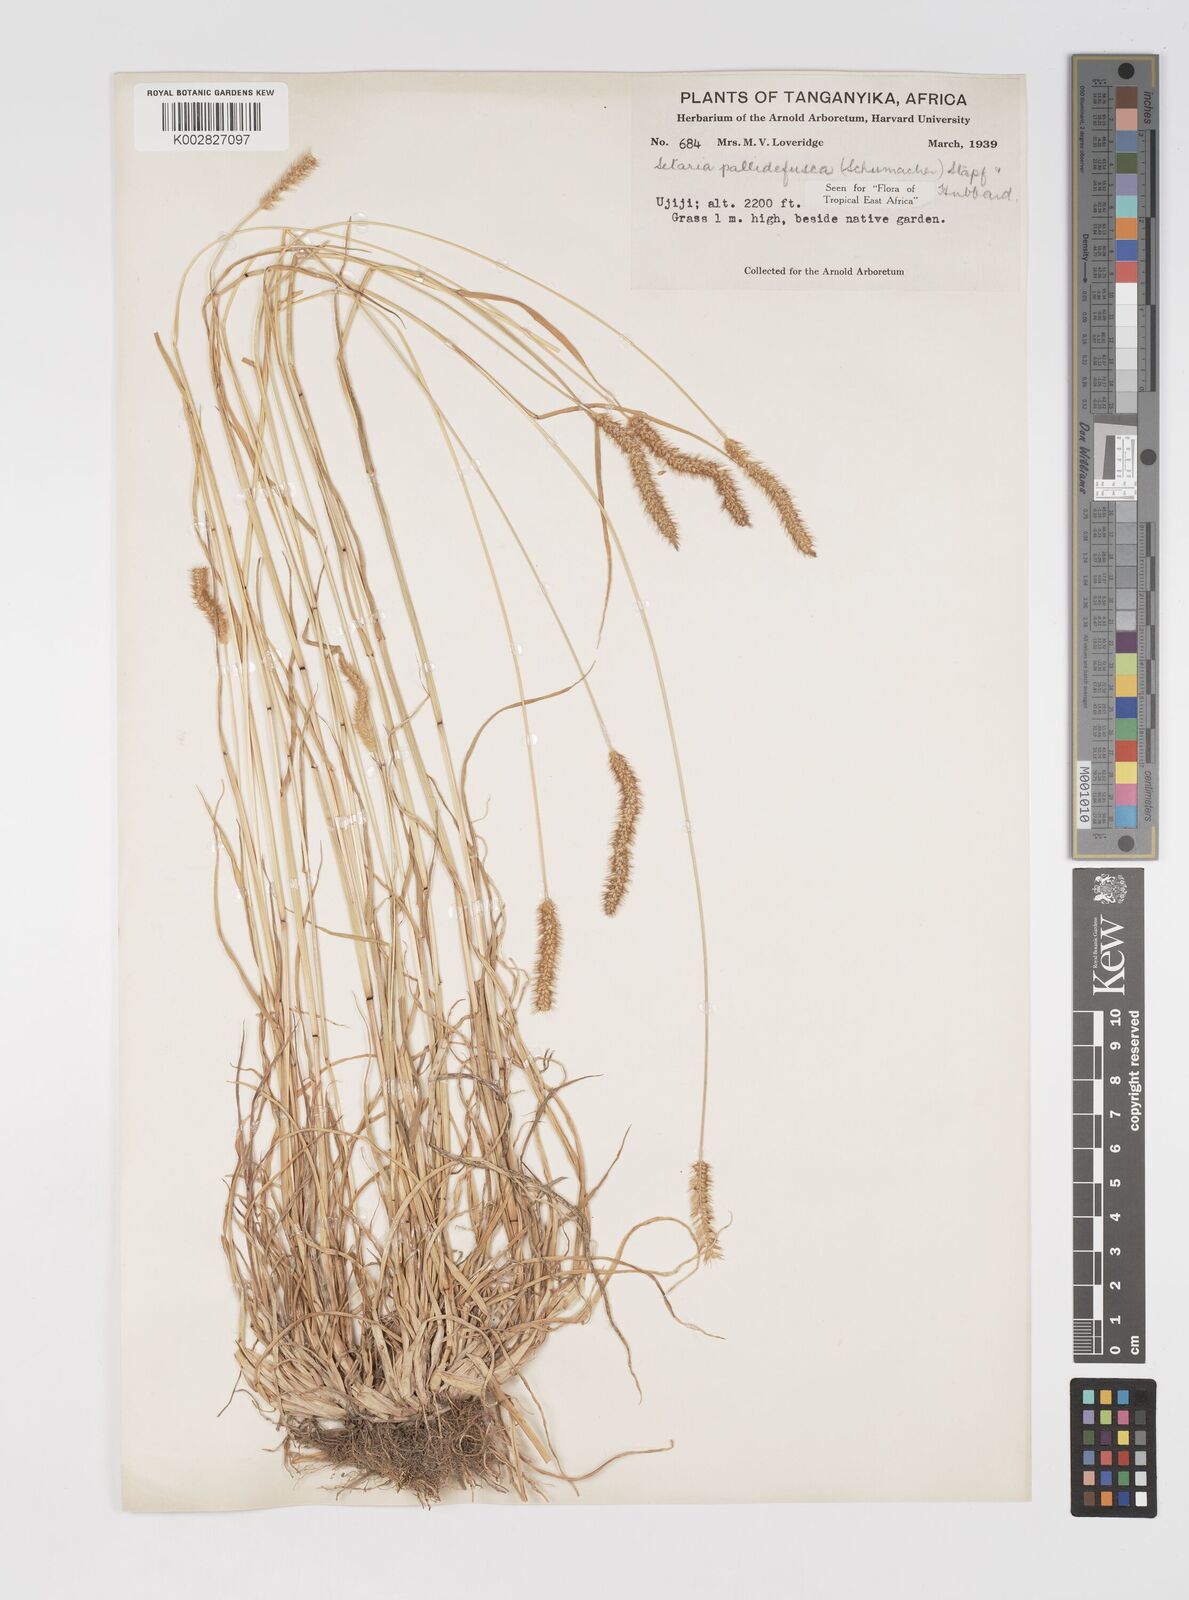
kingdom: Plantae
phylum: Tracheophyta
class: Liliopsida
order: Poales
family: Poaceae
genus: Setaria
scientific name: Setaria pumila
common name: Yellow bristle-grass
